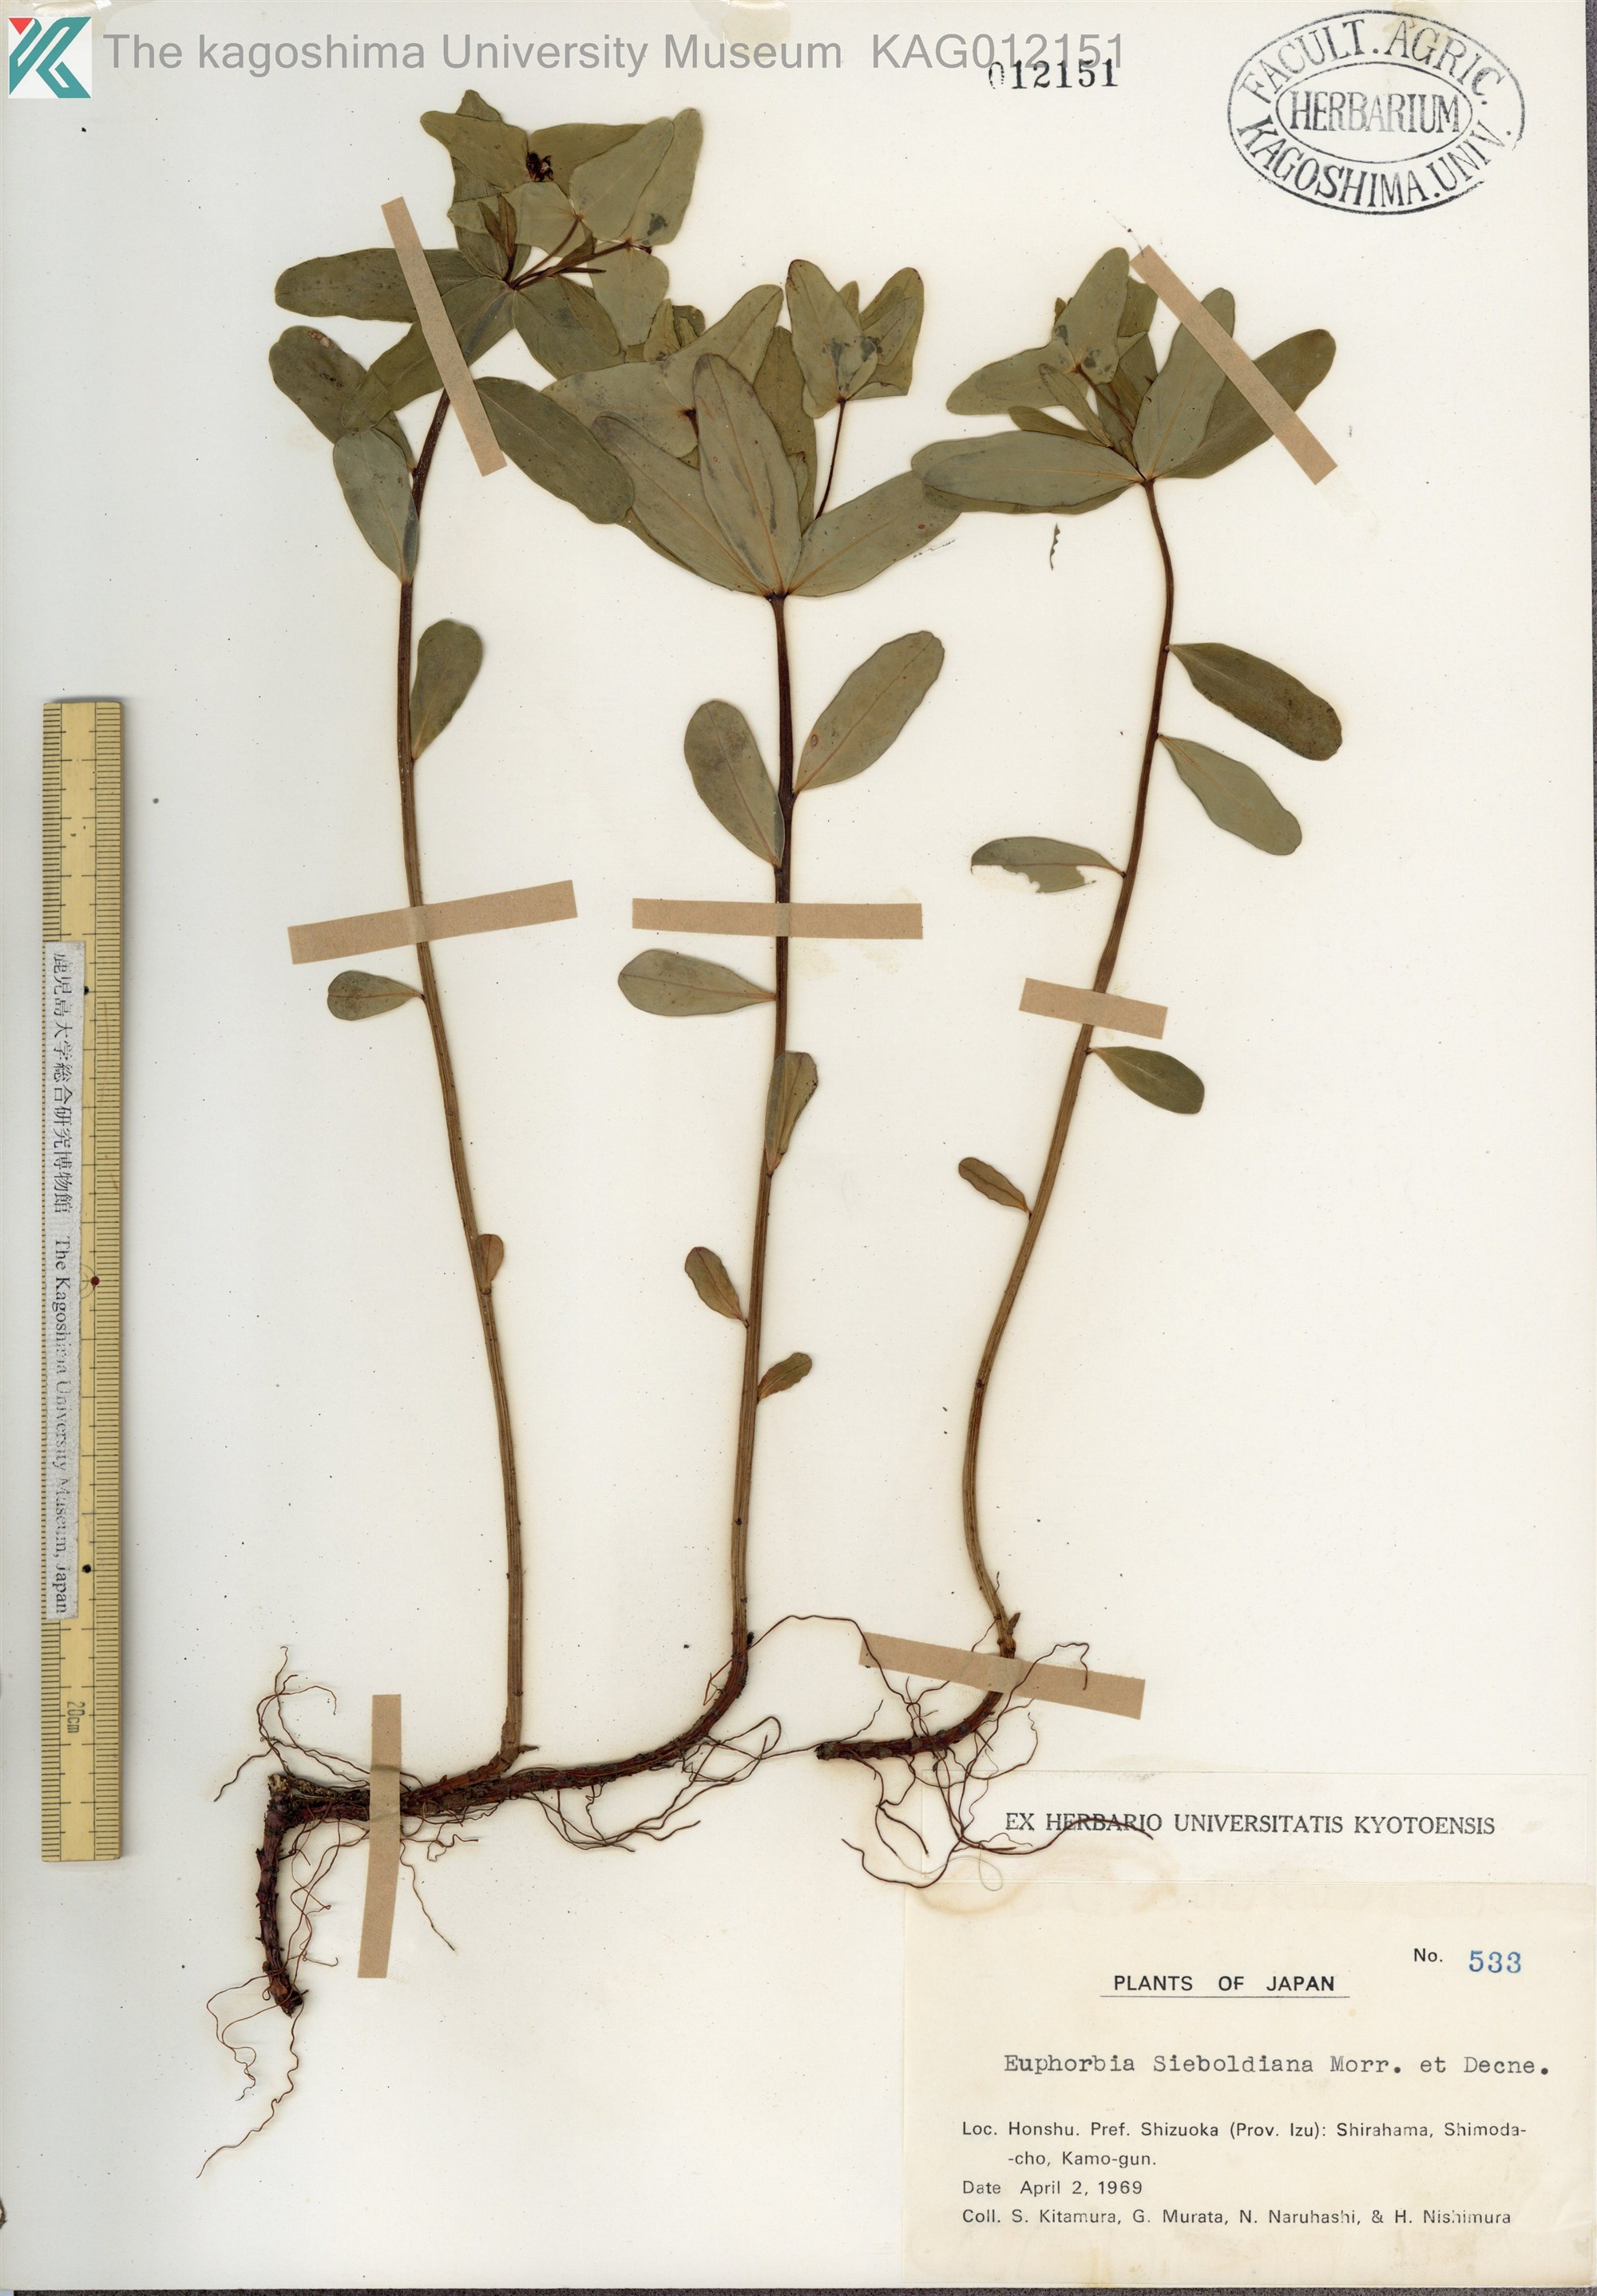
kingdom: Plantae
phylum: Tracheophyta
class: Magnoliopsida
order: Malpighiales
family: Euphorbiaceae
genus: Euphorbia
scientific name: Euphorbia sieboldiana
